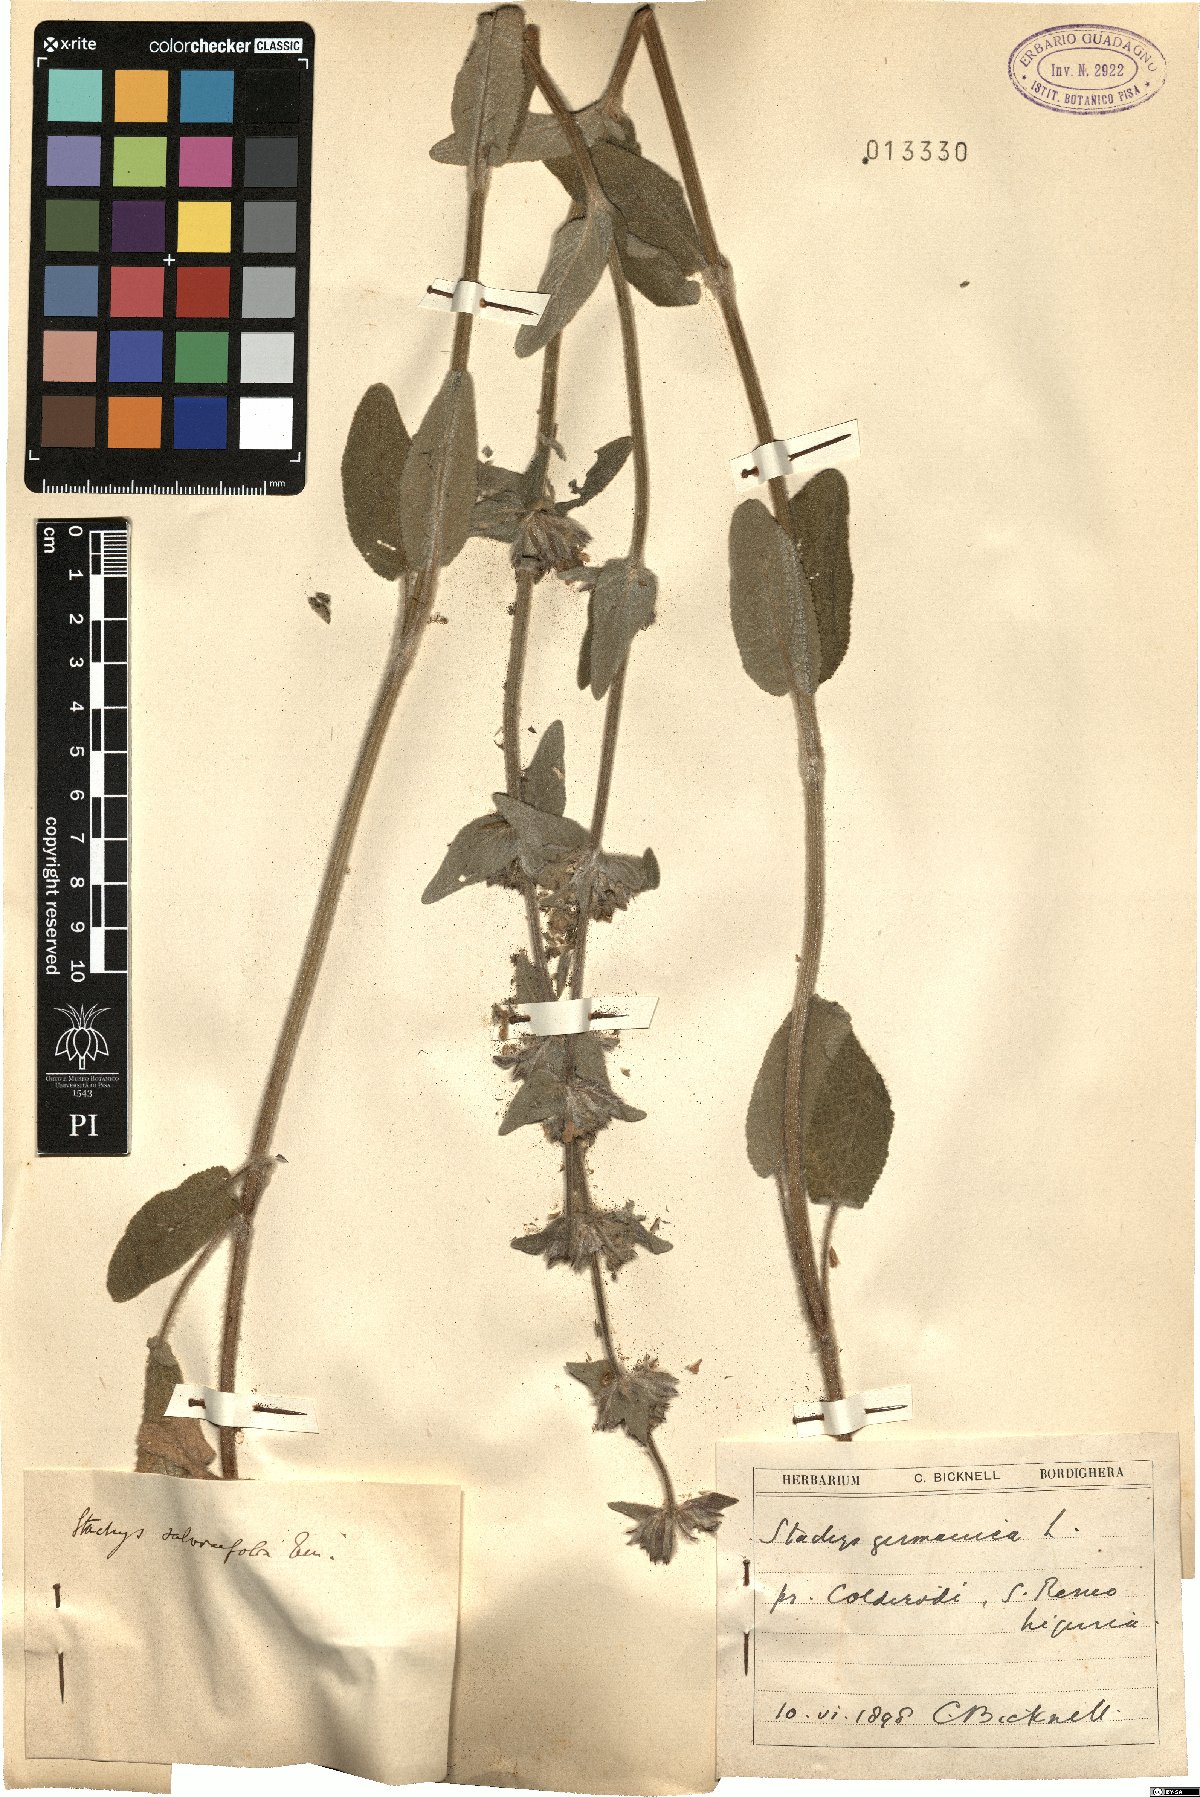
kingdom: Plantae
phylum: Tracheophyta
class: Magnoliopsida
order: Lamiales
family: Lamiaceae
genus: Stachys
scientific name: Stachys germanica
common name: Downy woundwort
